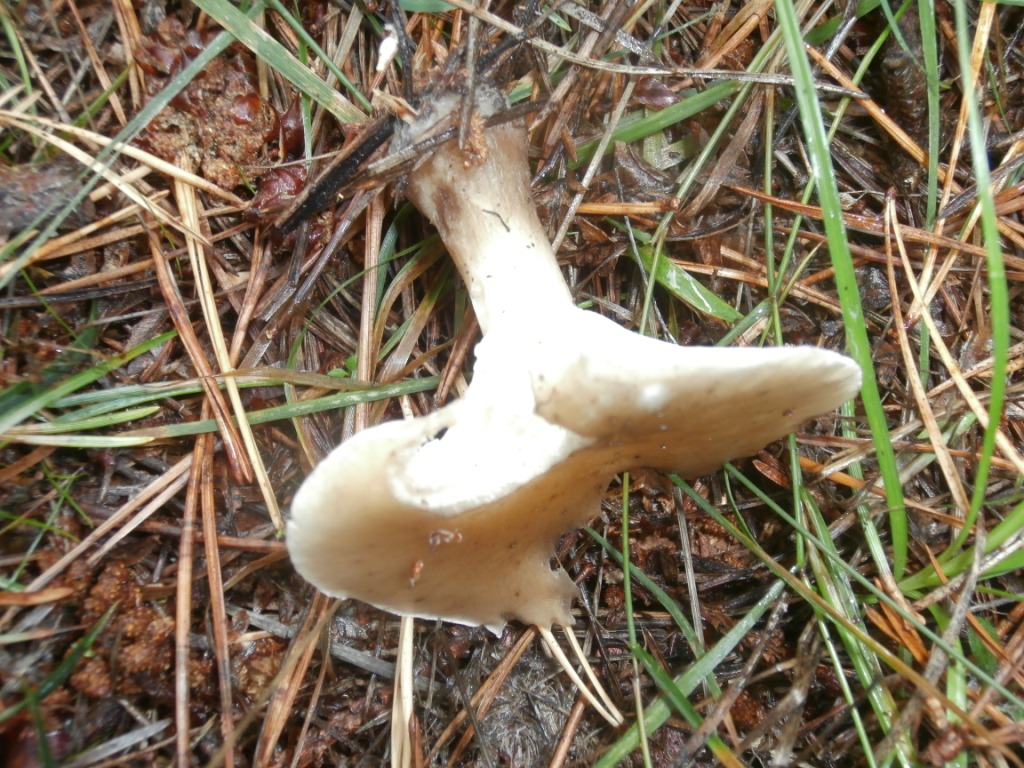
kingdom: Fungi
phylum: Basidiomycota
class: Agaricomycetes
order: Agaricales
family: Hygrophoraceae
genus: Ampulloclitocybe
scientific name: Ampulloclitocybe clavipes
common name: køllefod
